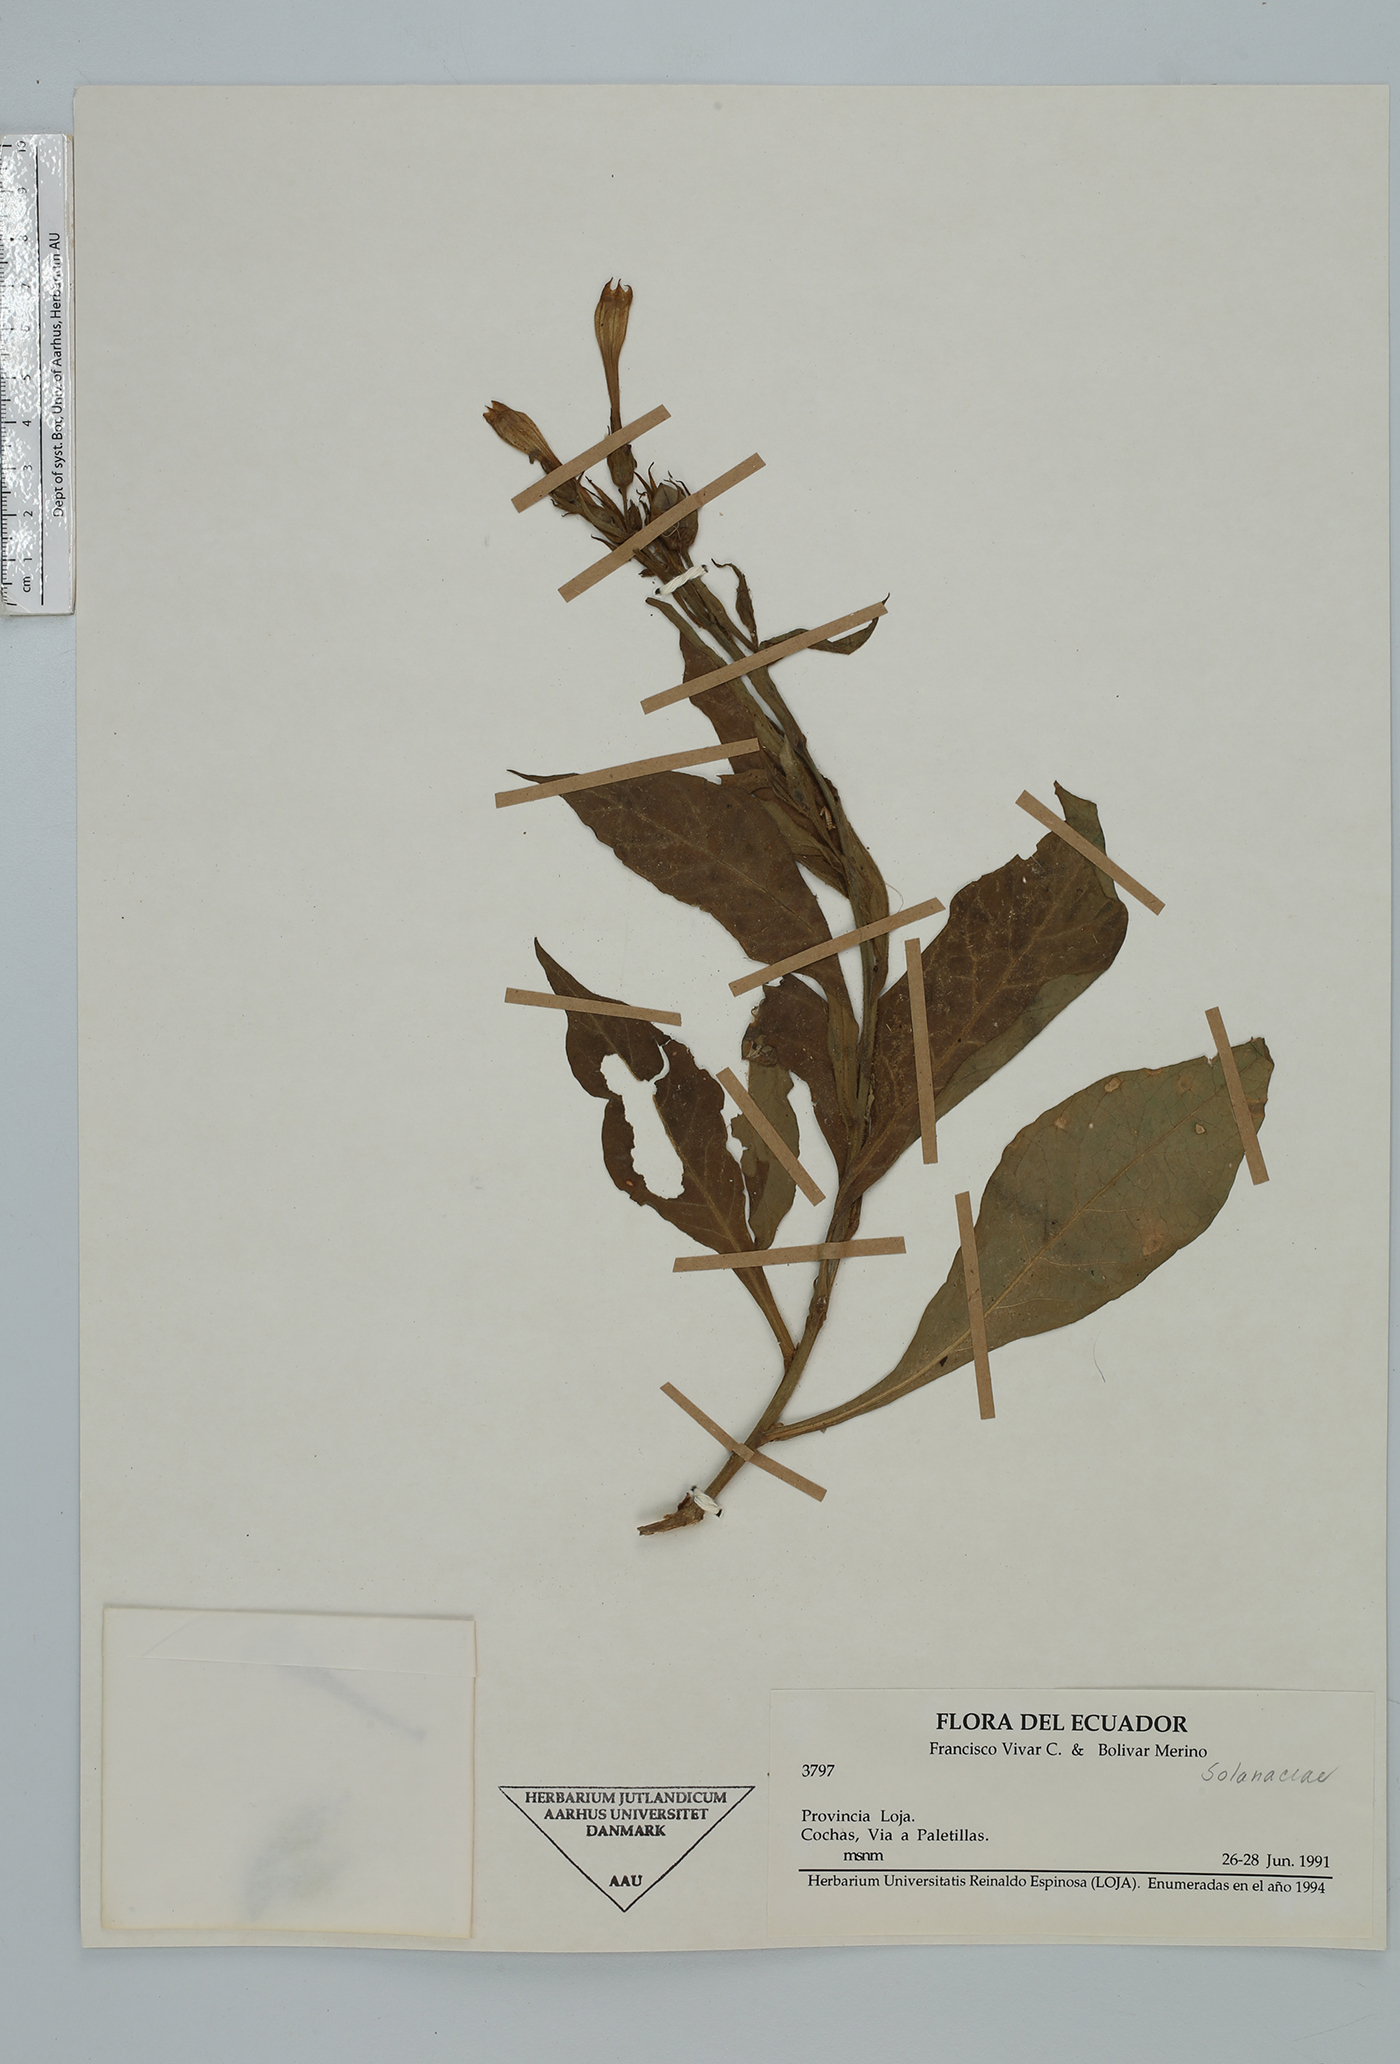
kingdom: Plantae
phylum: Tracheophyta
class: Magnoliopsida
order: Solanales
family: Solanaceae
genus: Nicotiana
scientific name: Nicotiana
